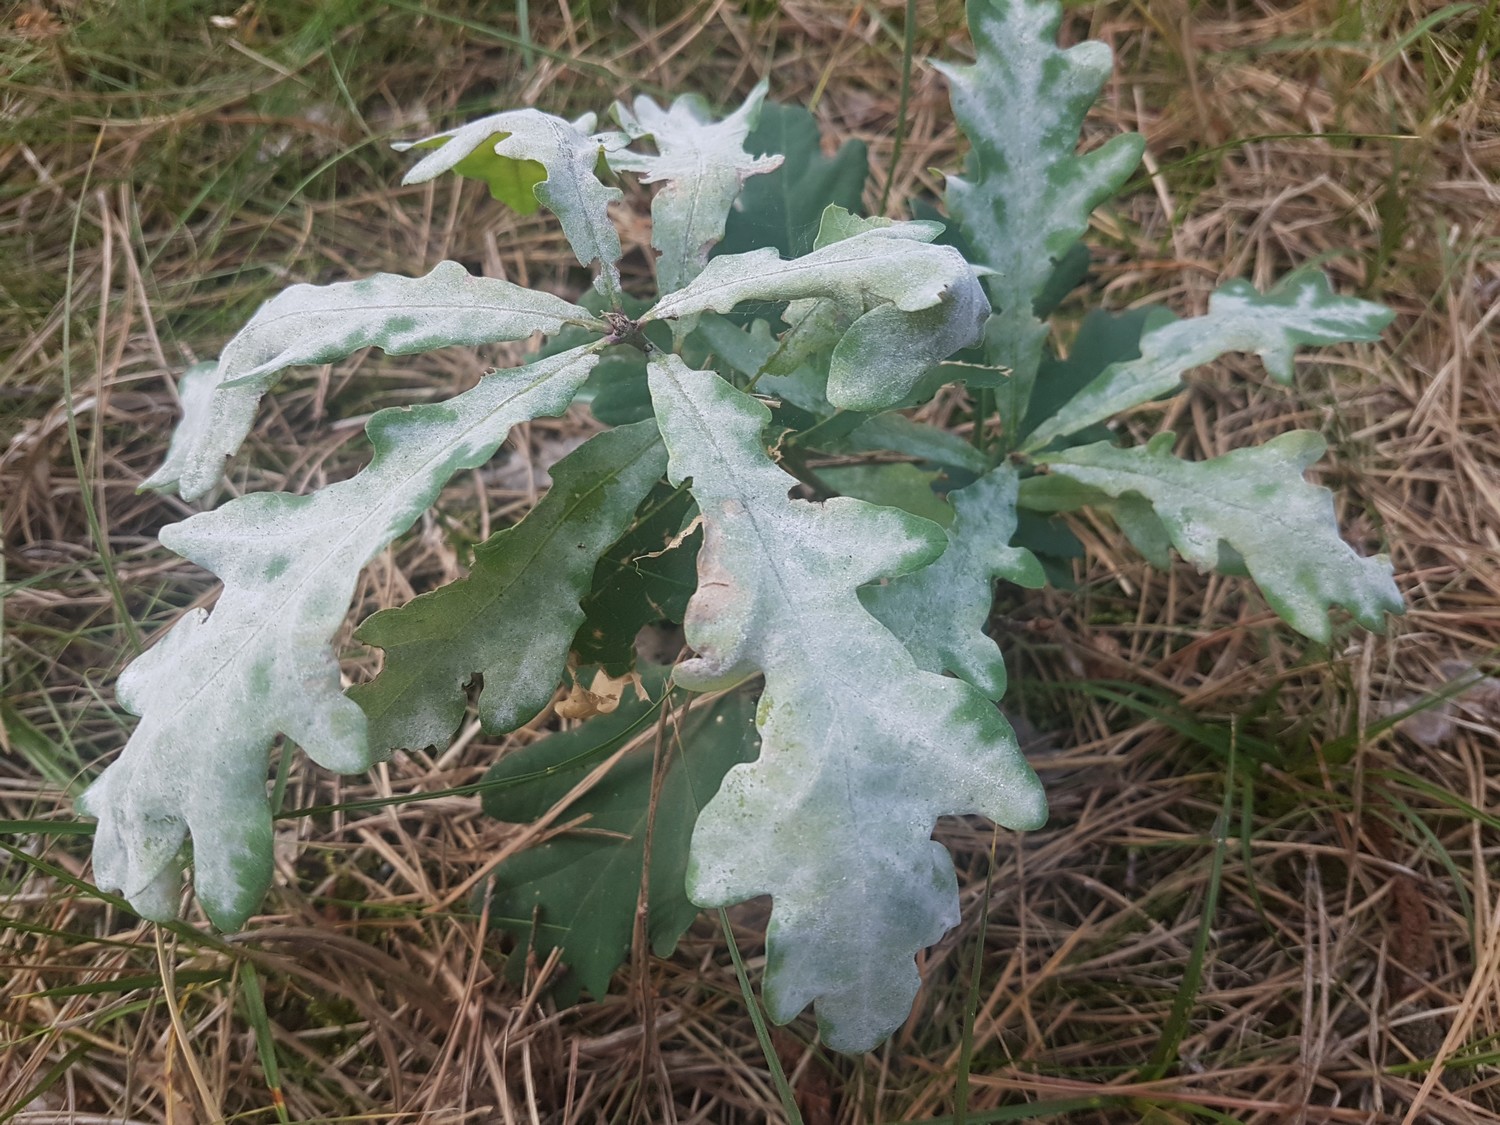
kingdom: Fungi
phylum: Ascomycota
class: Leotiomycetes
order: Helotiales
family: Erysiphaceae
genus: Erysiphe
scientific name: Erysiphe alphitoides
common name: ege-meldug
